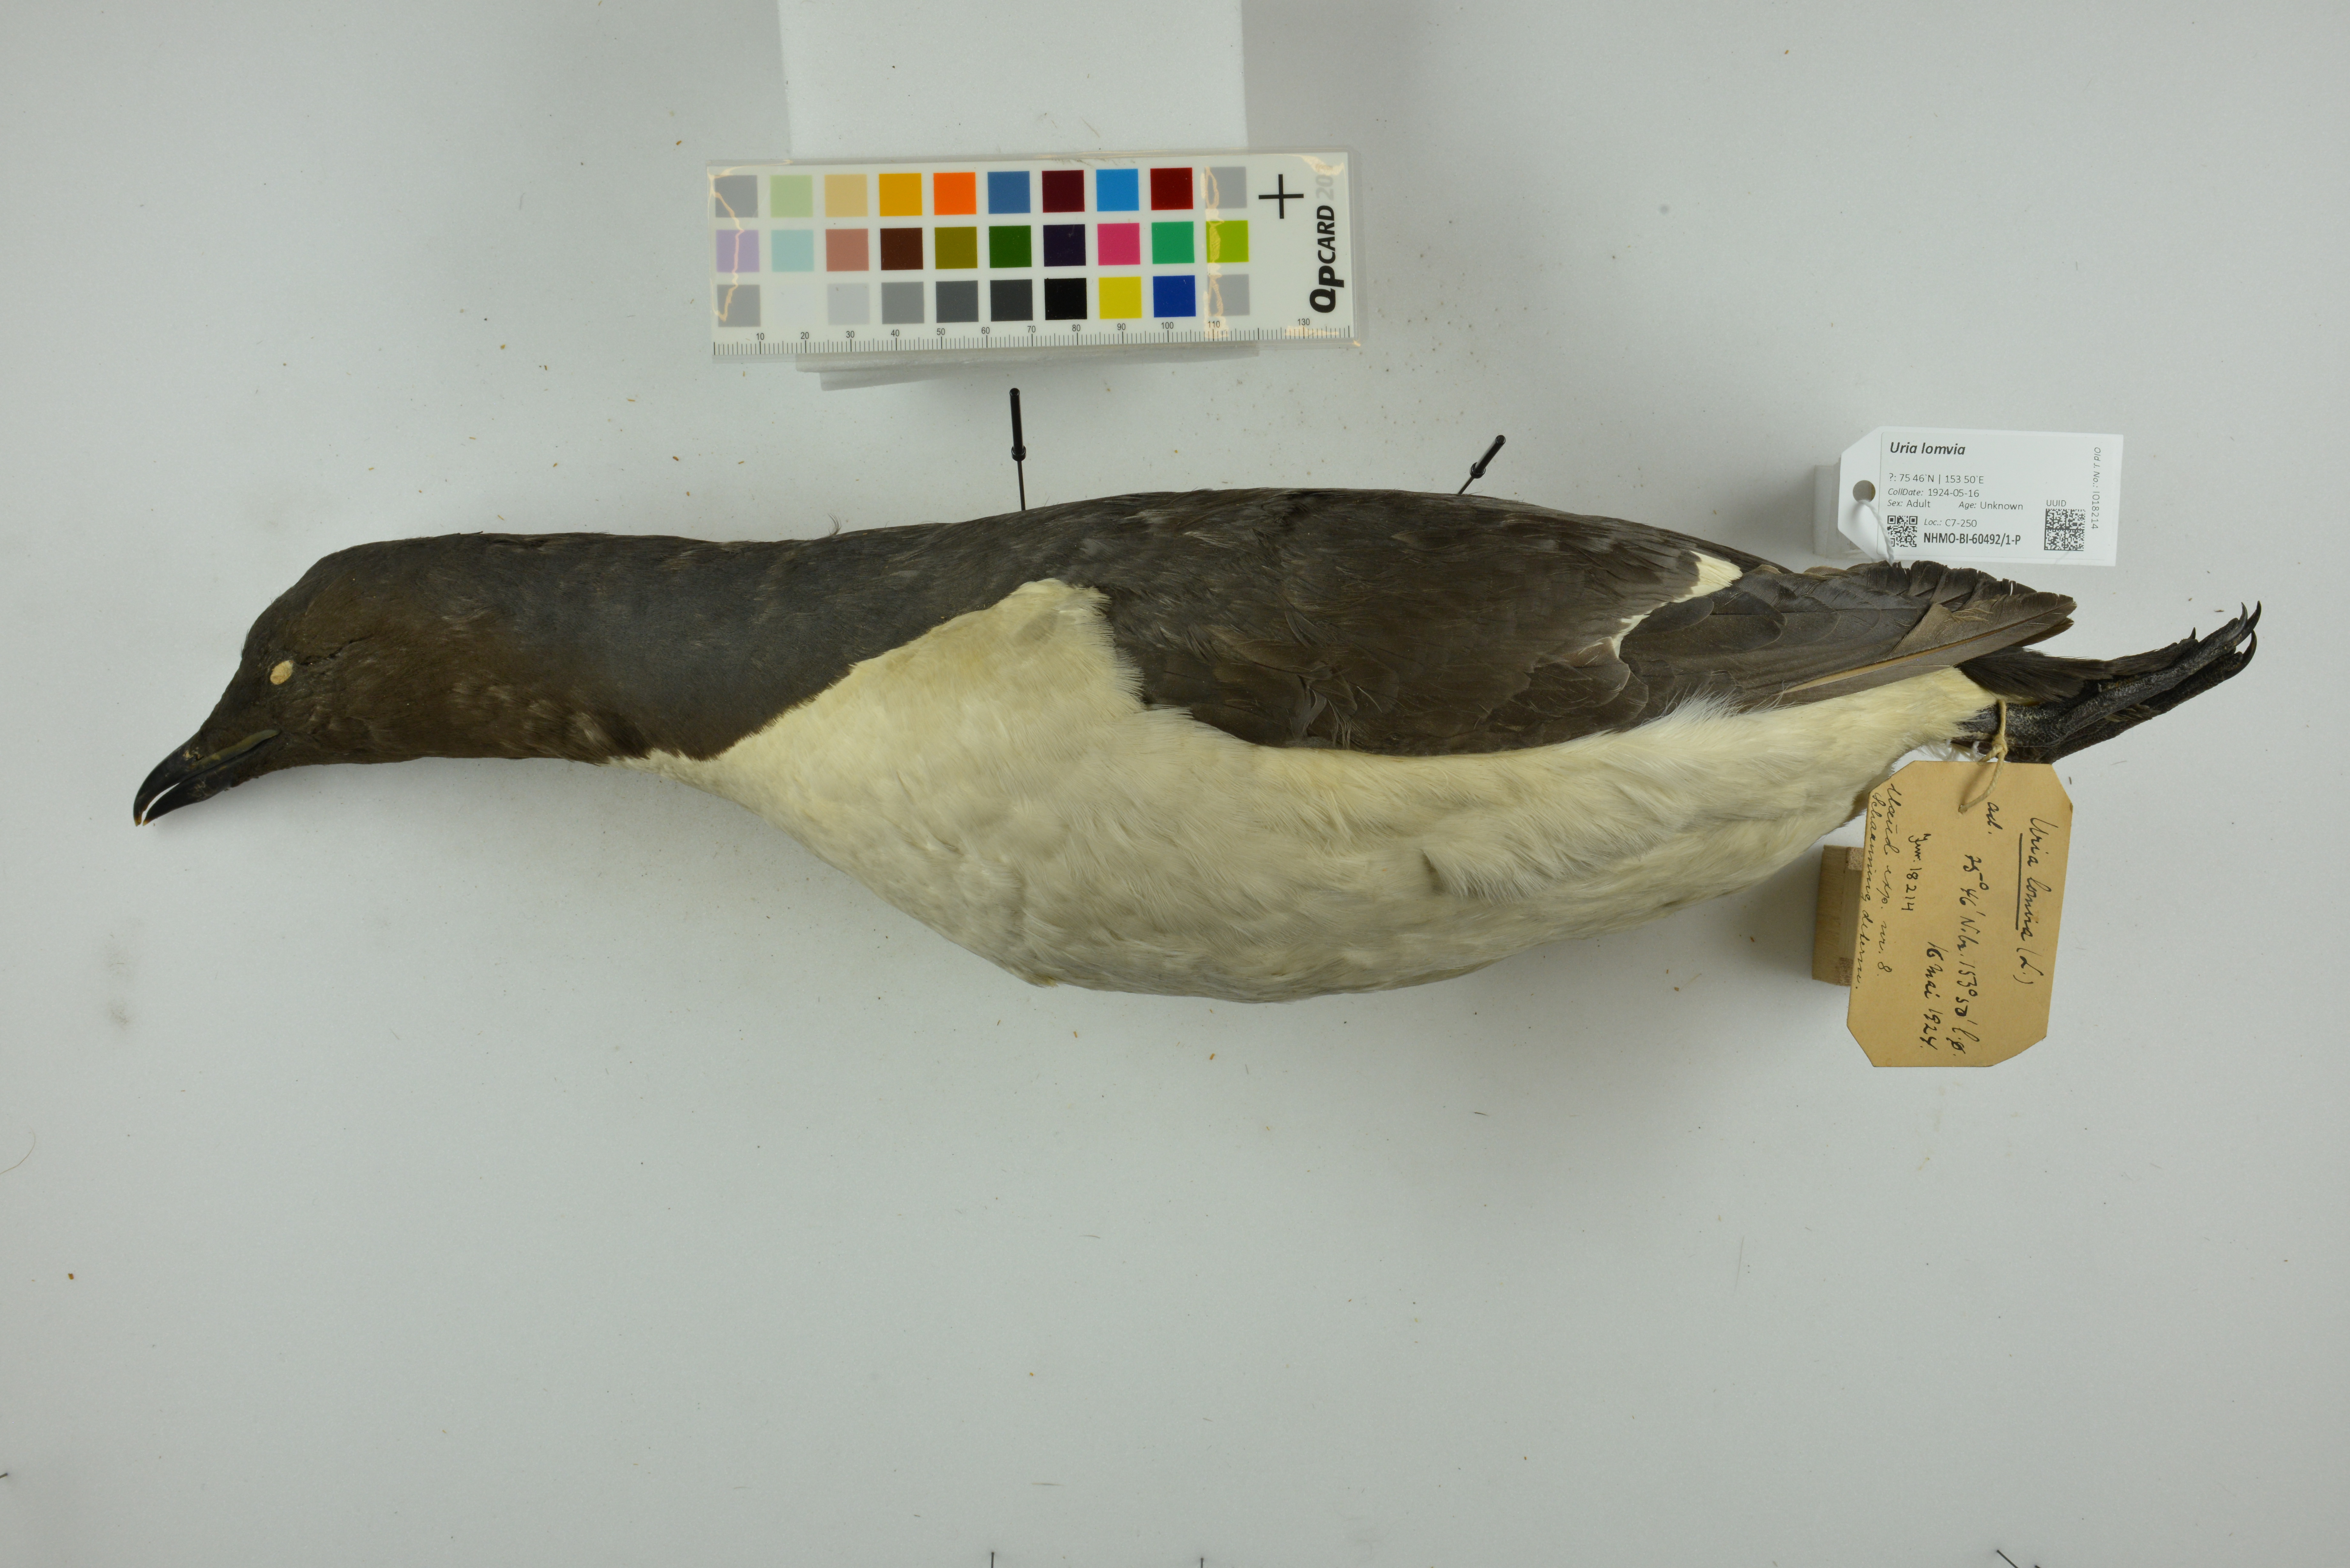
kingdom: Animalia
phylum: Chordata
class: Aves
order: Charadriiformes
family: Alcidae
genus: Uria
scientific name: Uria lomvia
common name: Thick-billed murre
